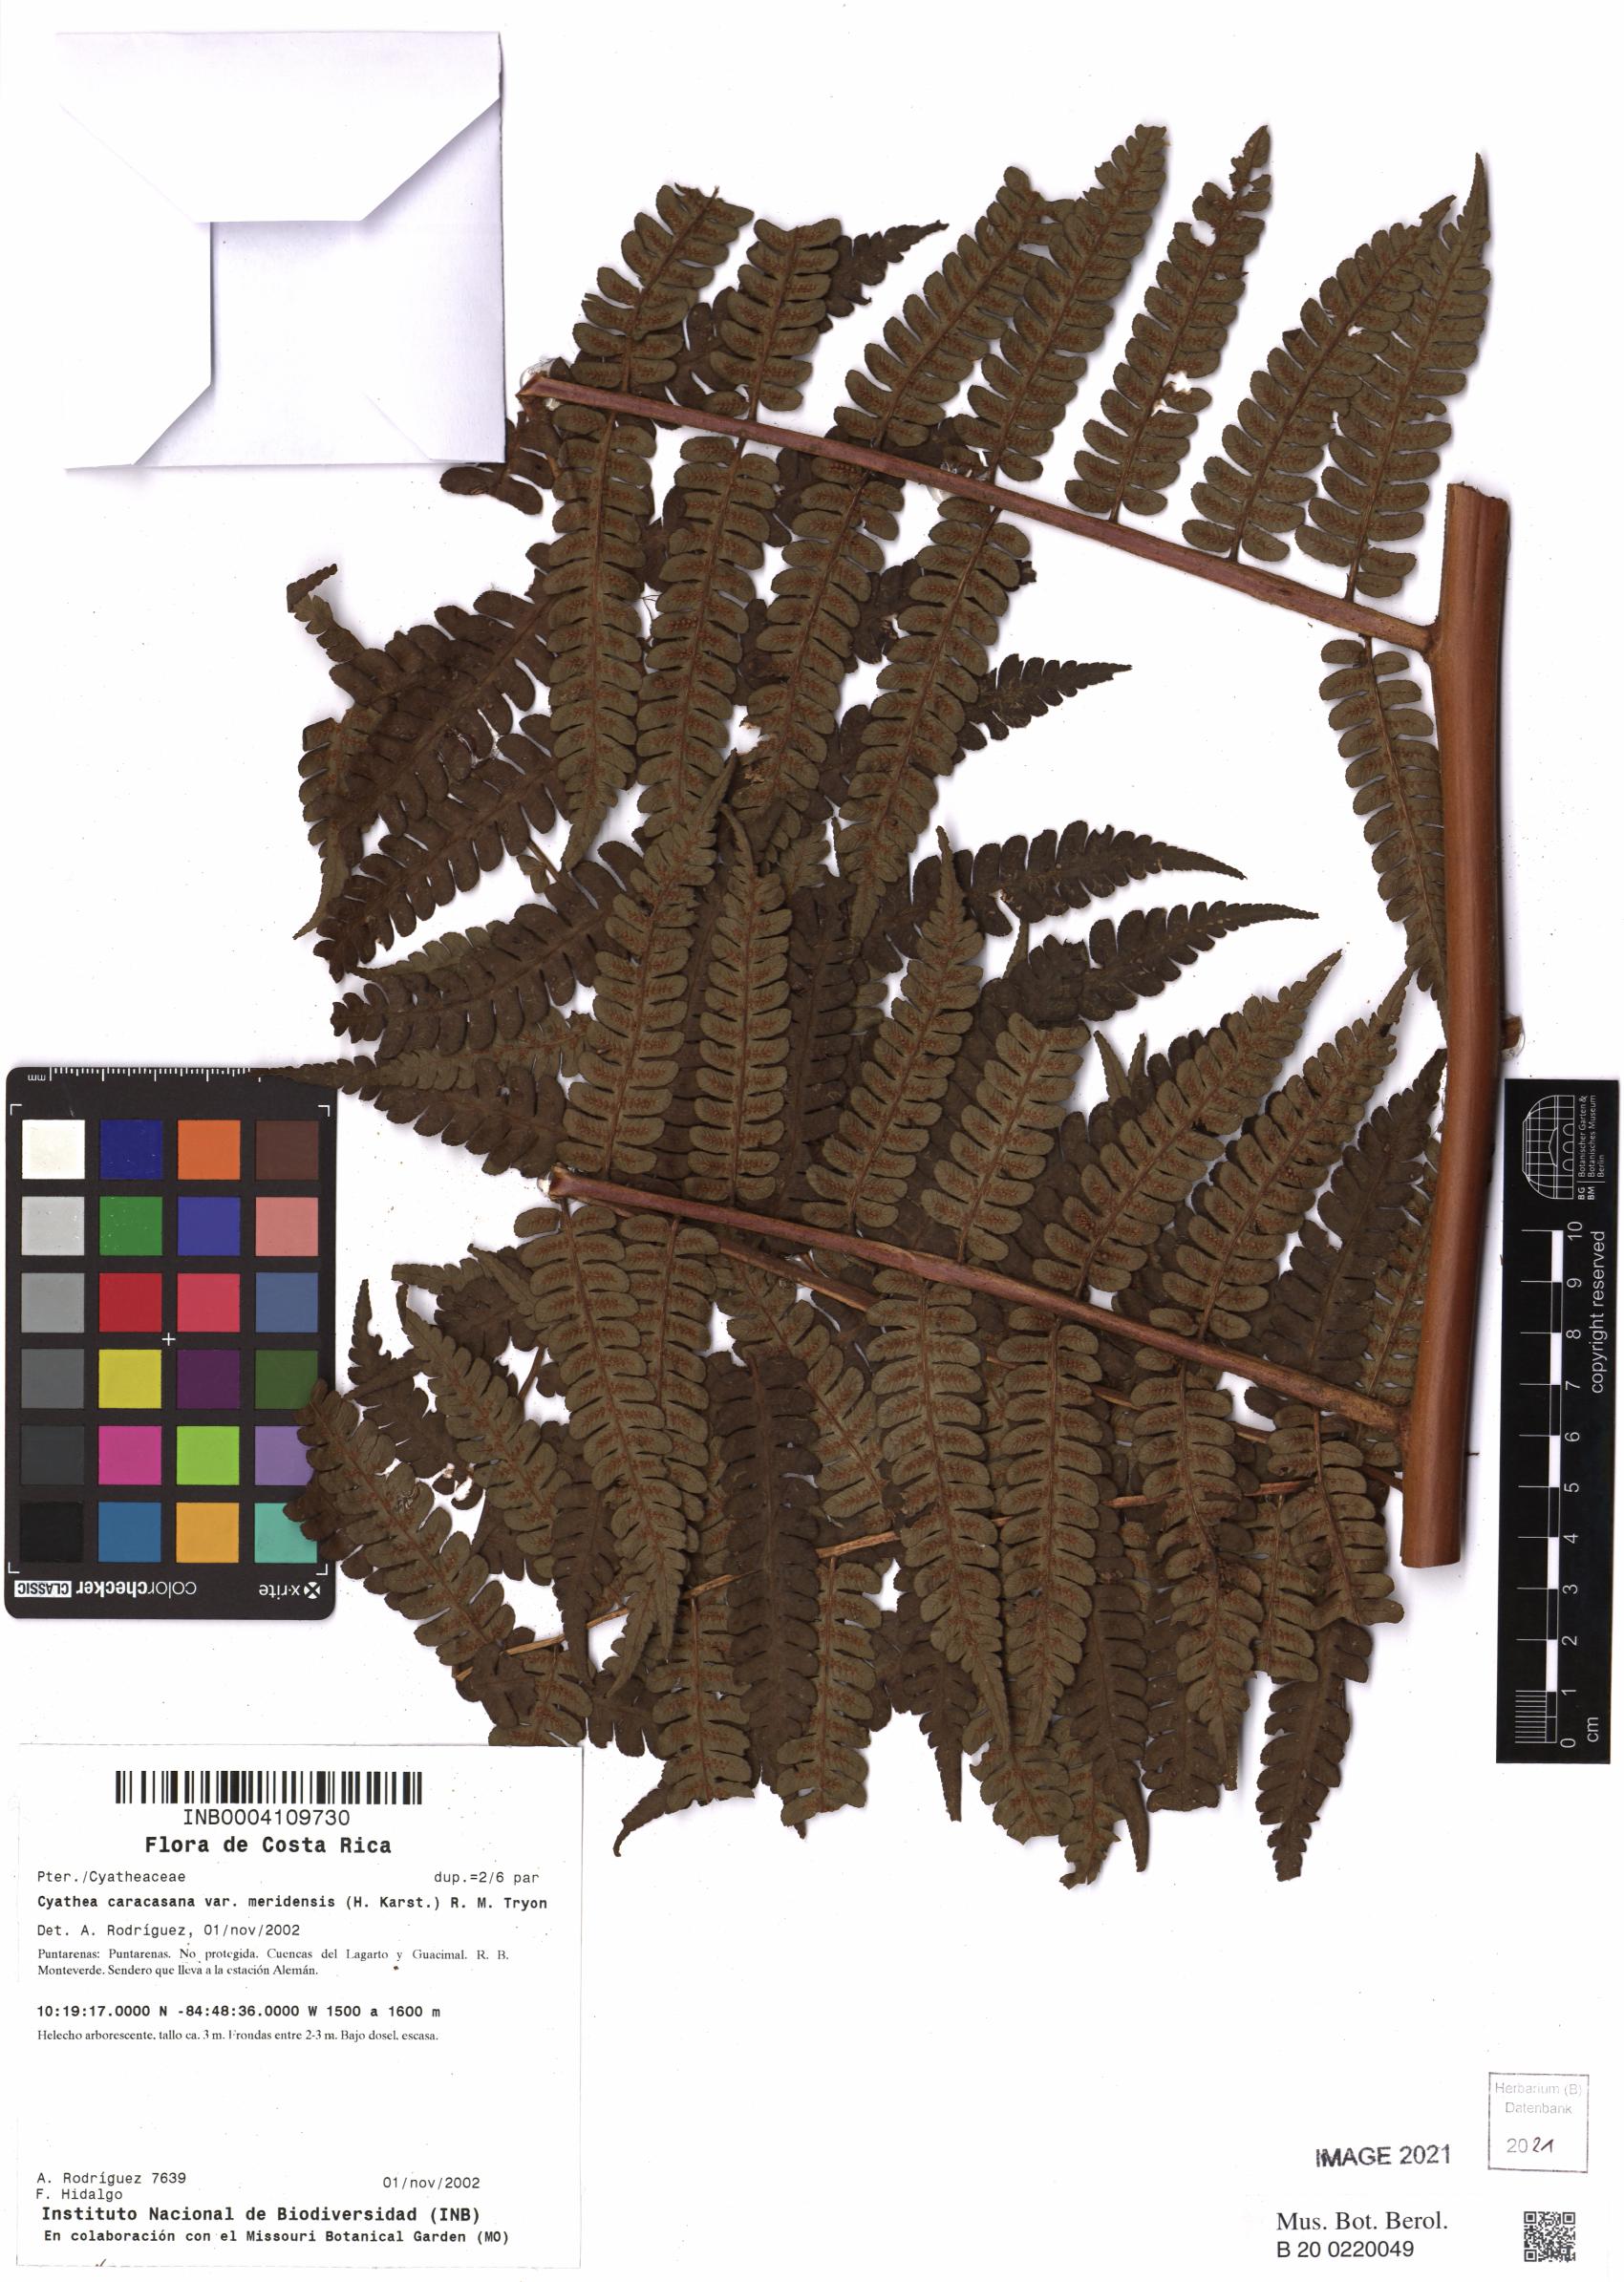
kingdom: Plantae
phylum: Tracheophyta
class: Polypodiopsida
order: Cyatheales
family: Cyatheaceae
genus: Cyathea
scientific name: Cyathea meridensis
